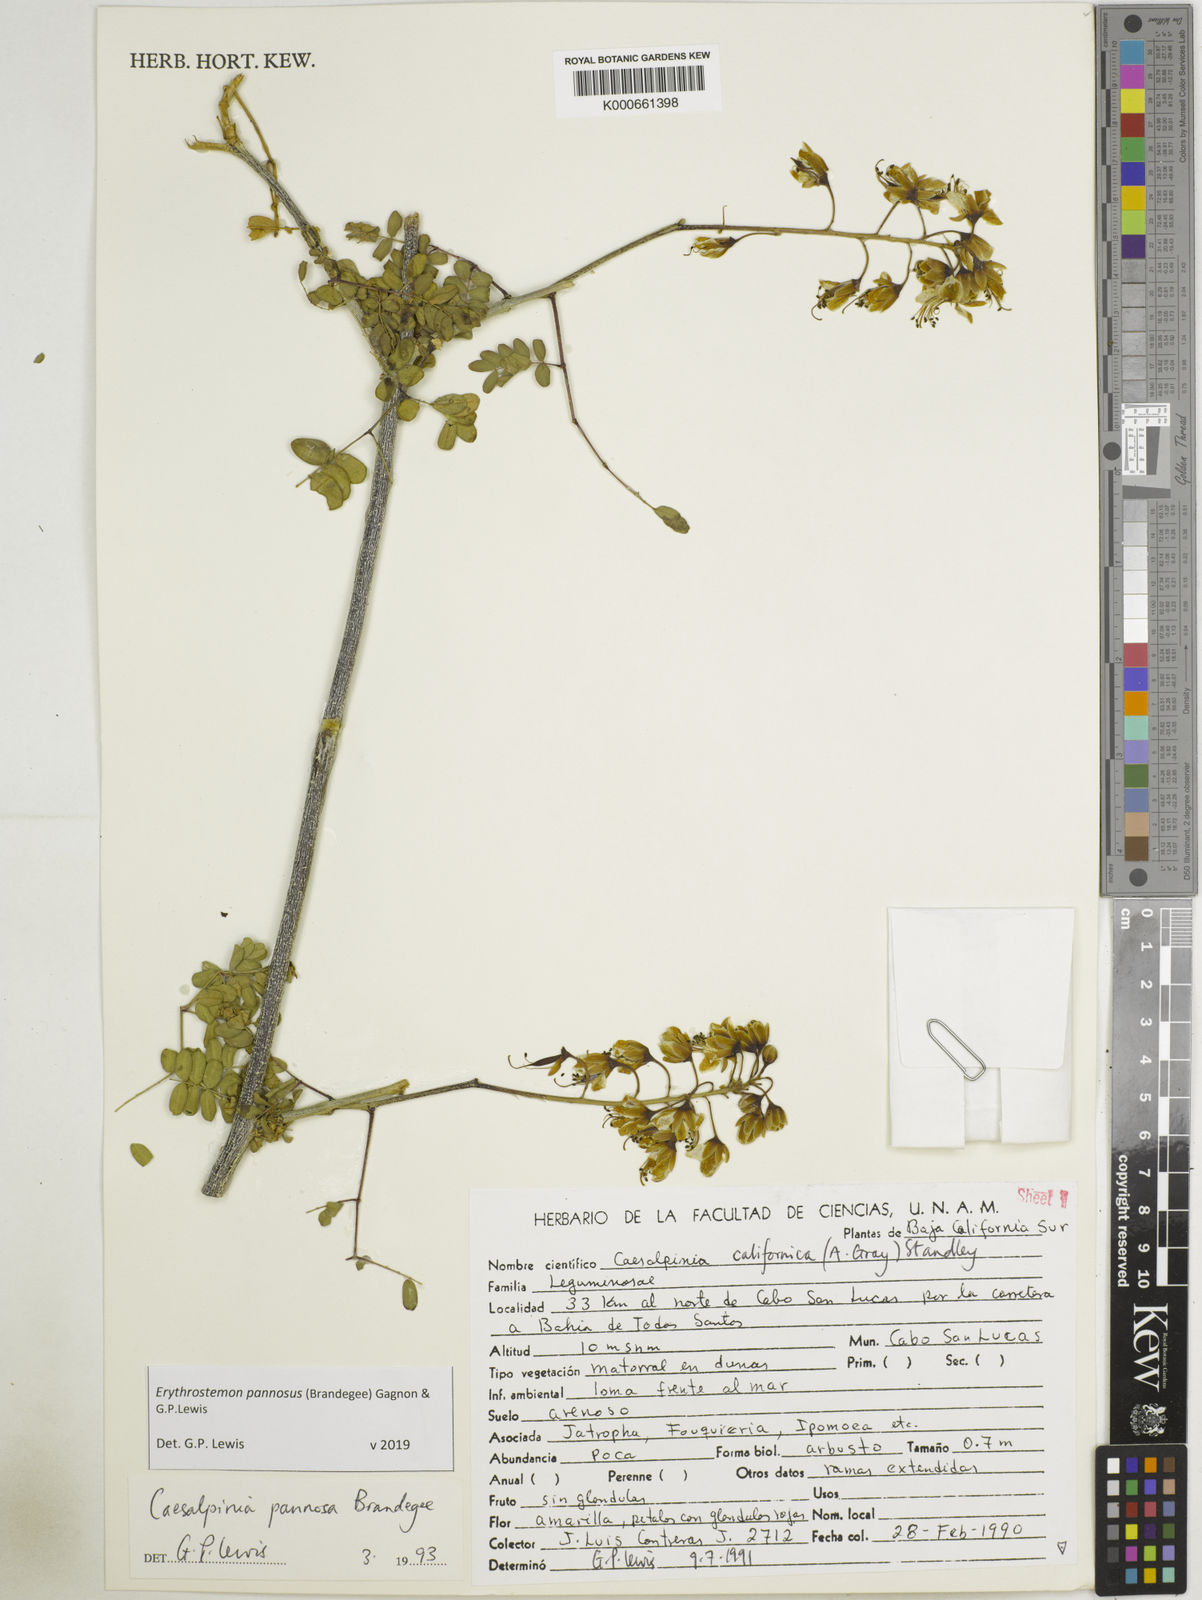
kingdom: Plantae
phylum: Tracheophyta
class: Magnoliopsida
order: Fabales
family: Fabaceae
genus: Erythrostemon
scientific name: Erythrostemon pannosus
